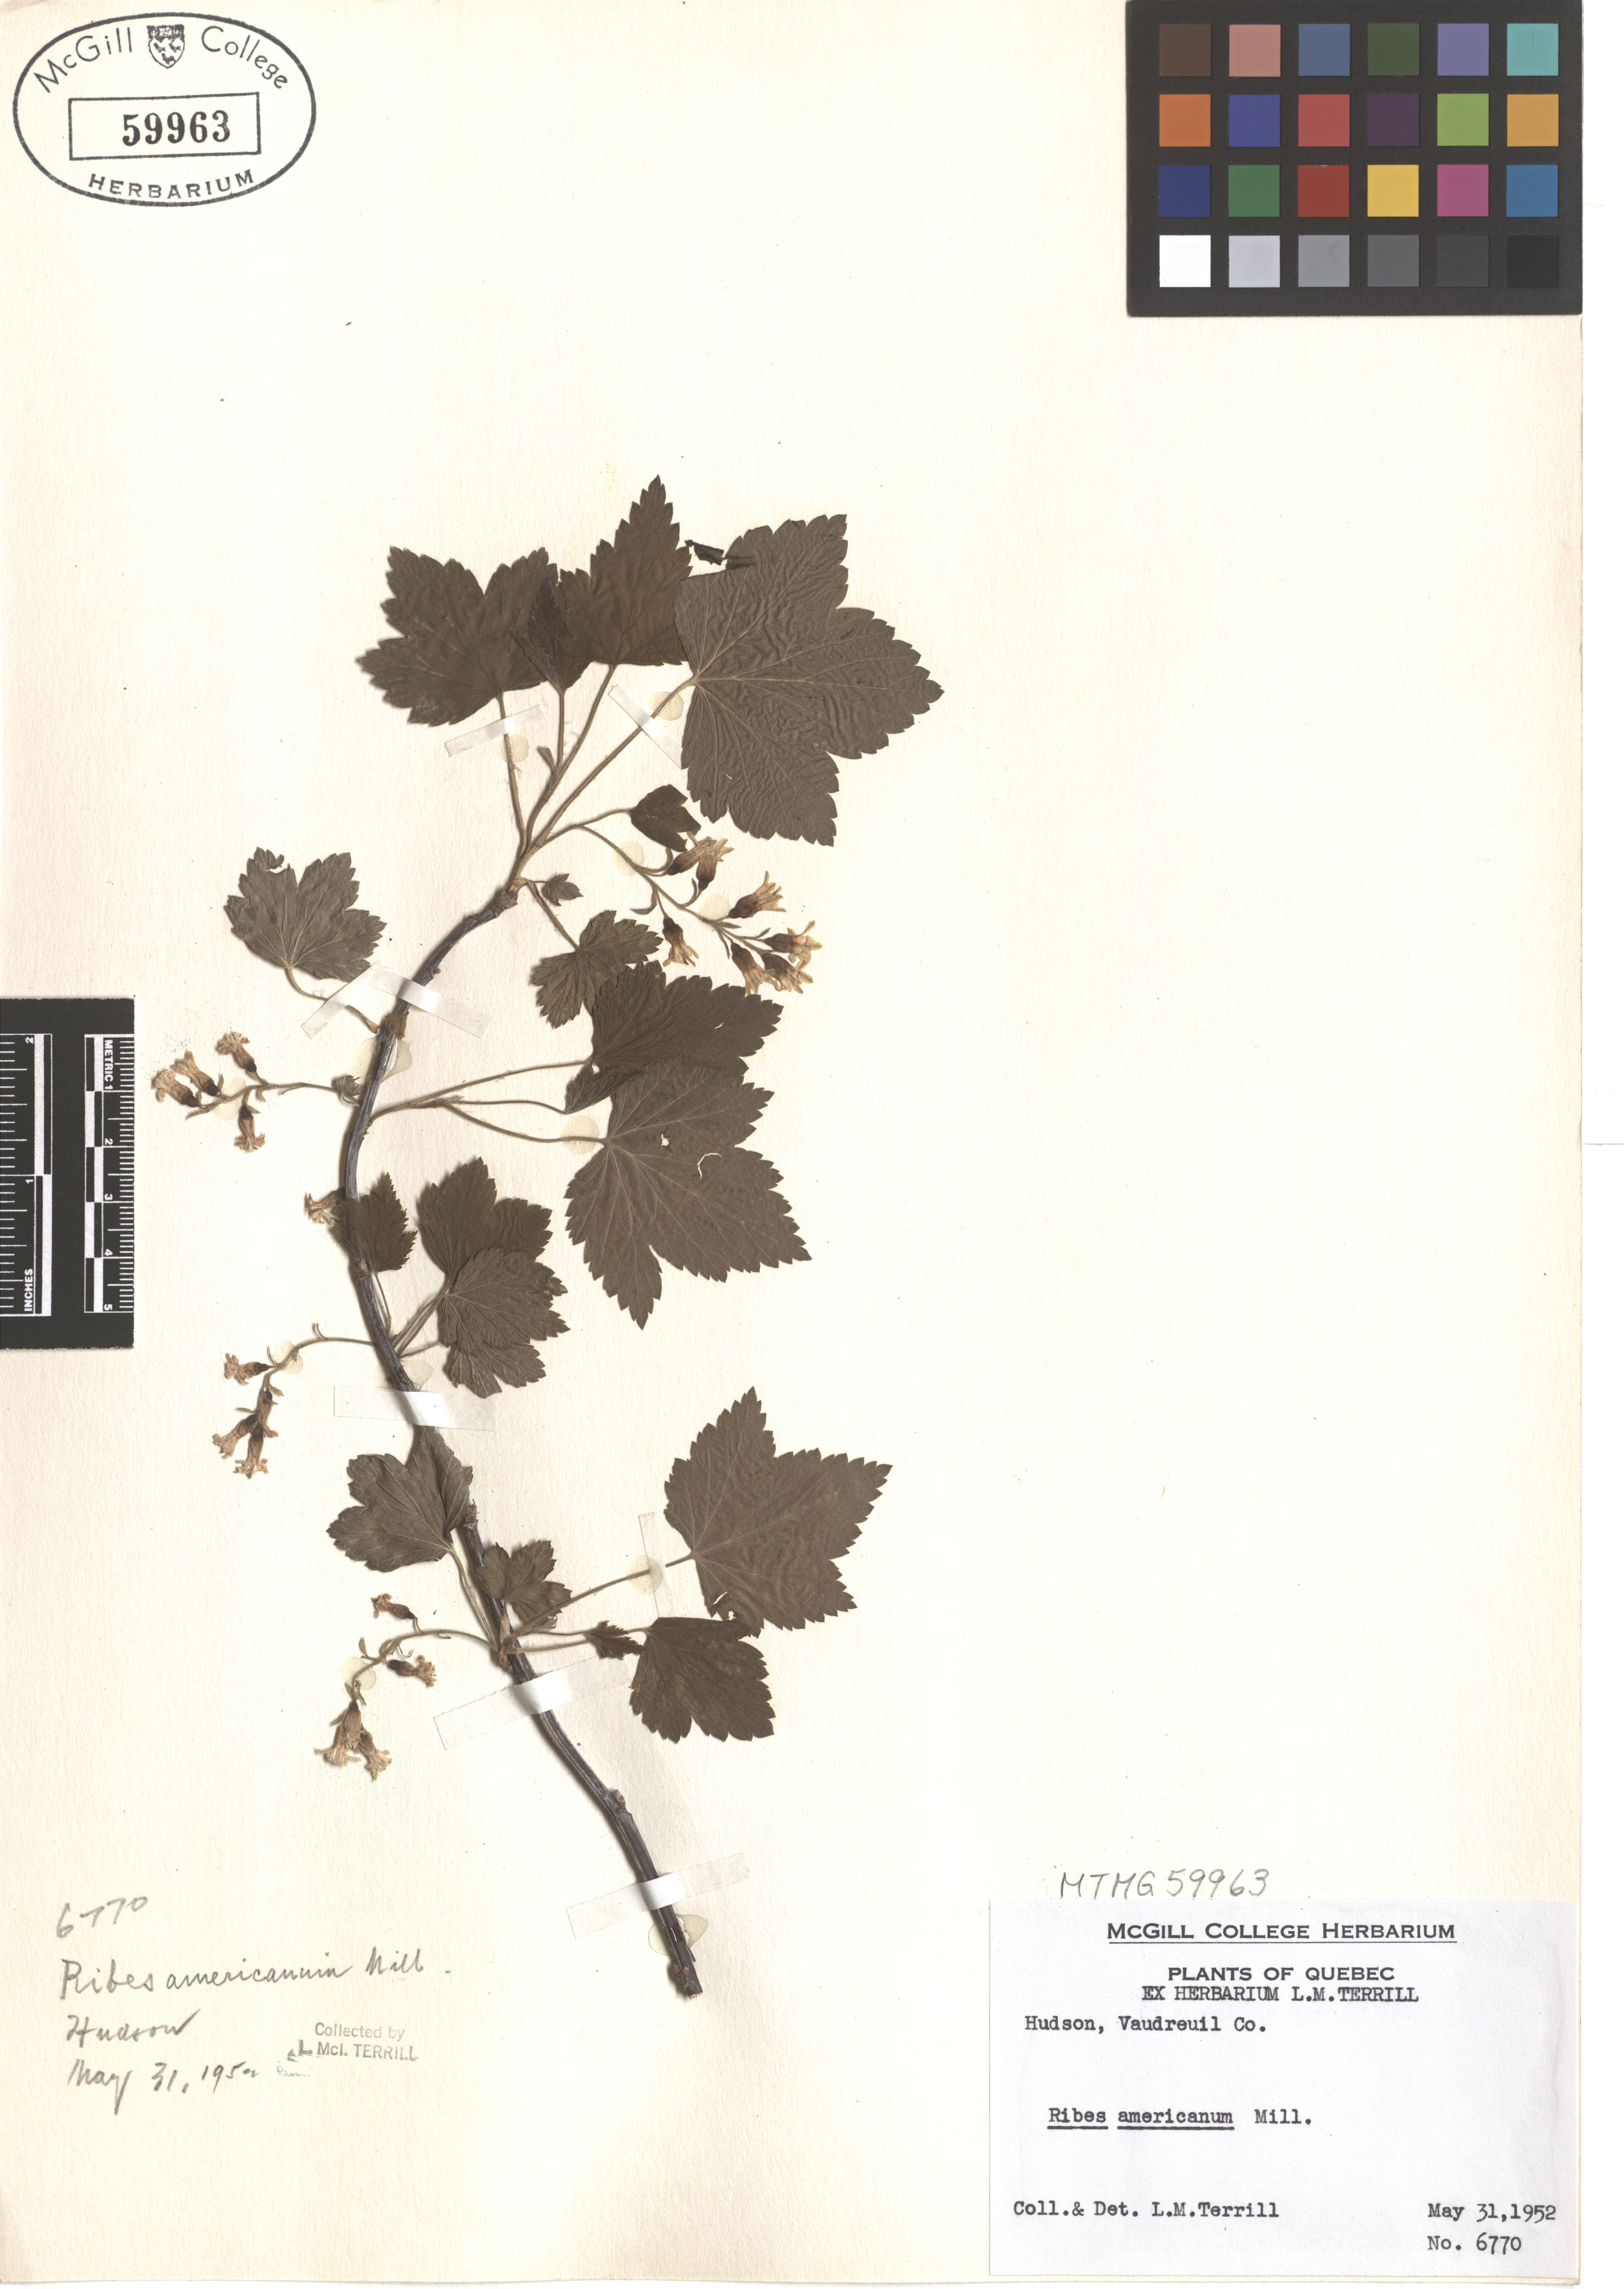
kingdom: Plantae
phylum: Tracheophyta
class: Magnoliopsida
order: Saxifragales
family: Grossulariaceae
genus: Ribes
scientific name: Ribes americanum
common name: American black currant
